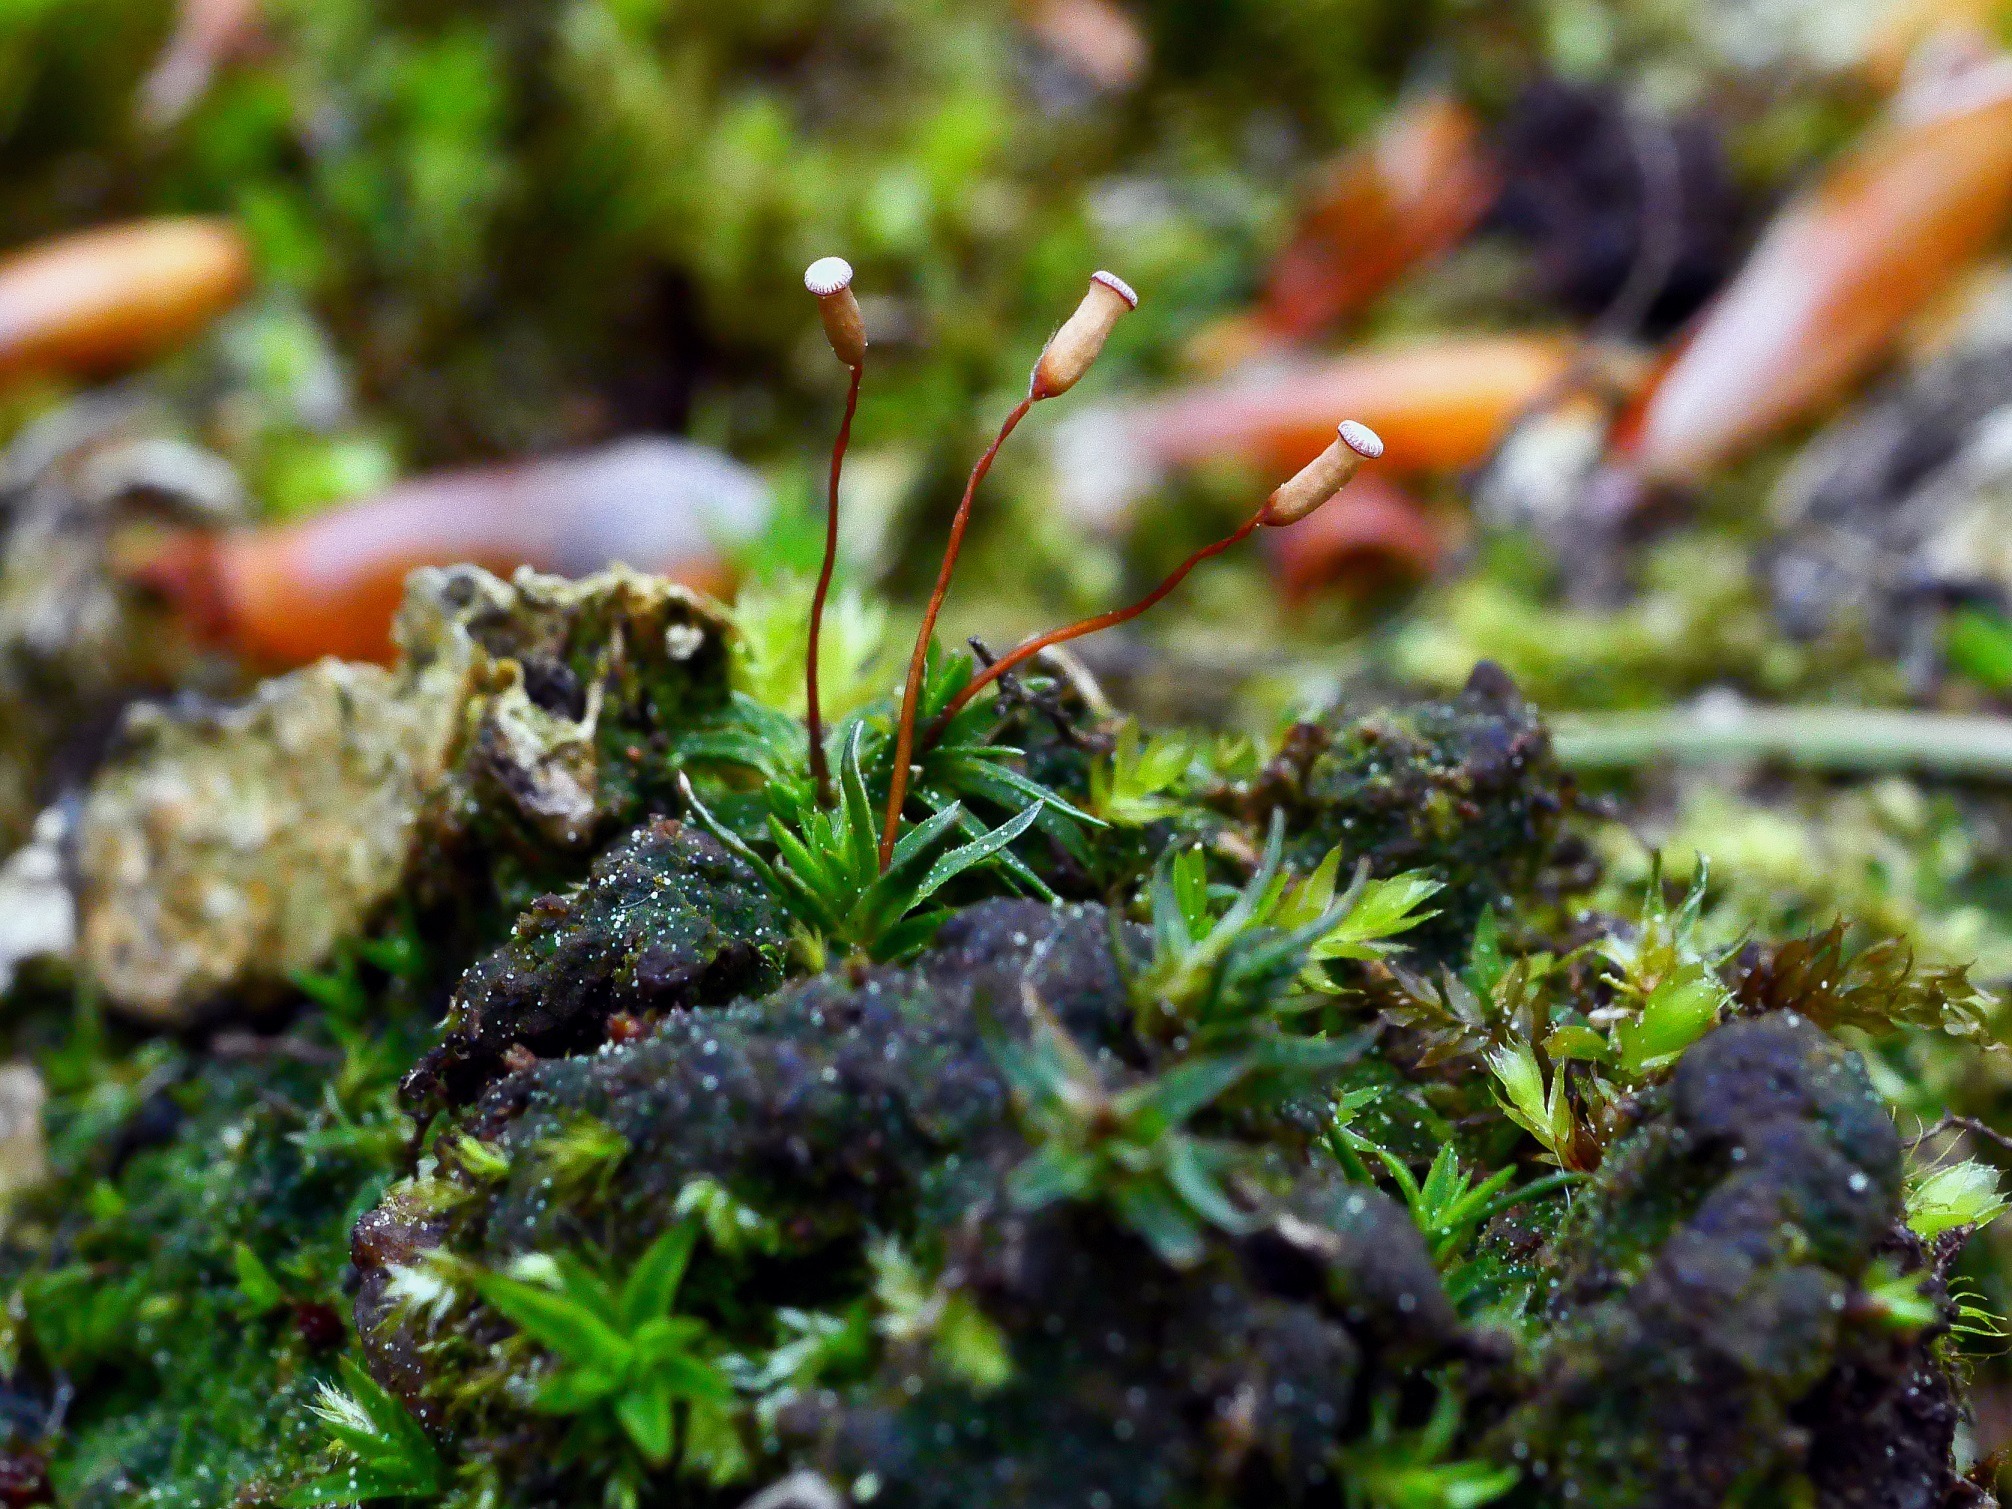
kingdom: Plantae
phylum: Bryophyta
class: Polytrichopsida
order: Polytrichales
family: Polytrichaceae
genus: Pogonatum
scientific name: Pogonatum aloides
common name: Smal urnekapsel
